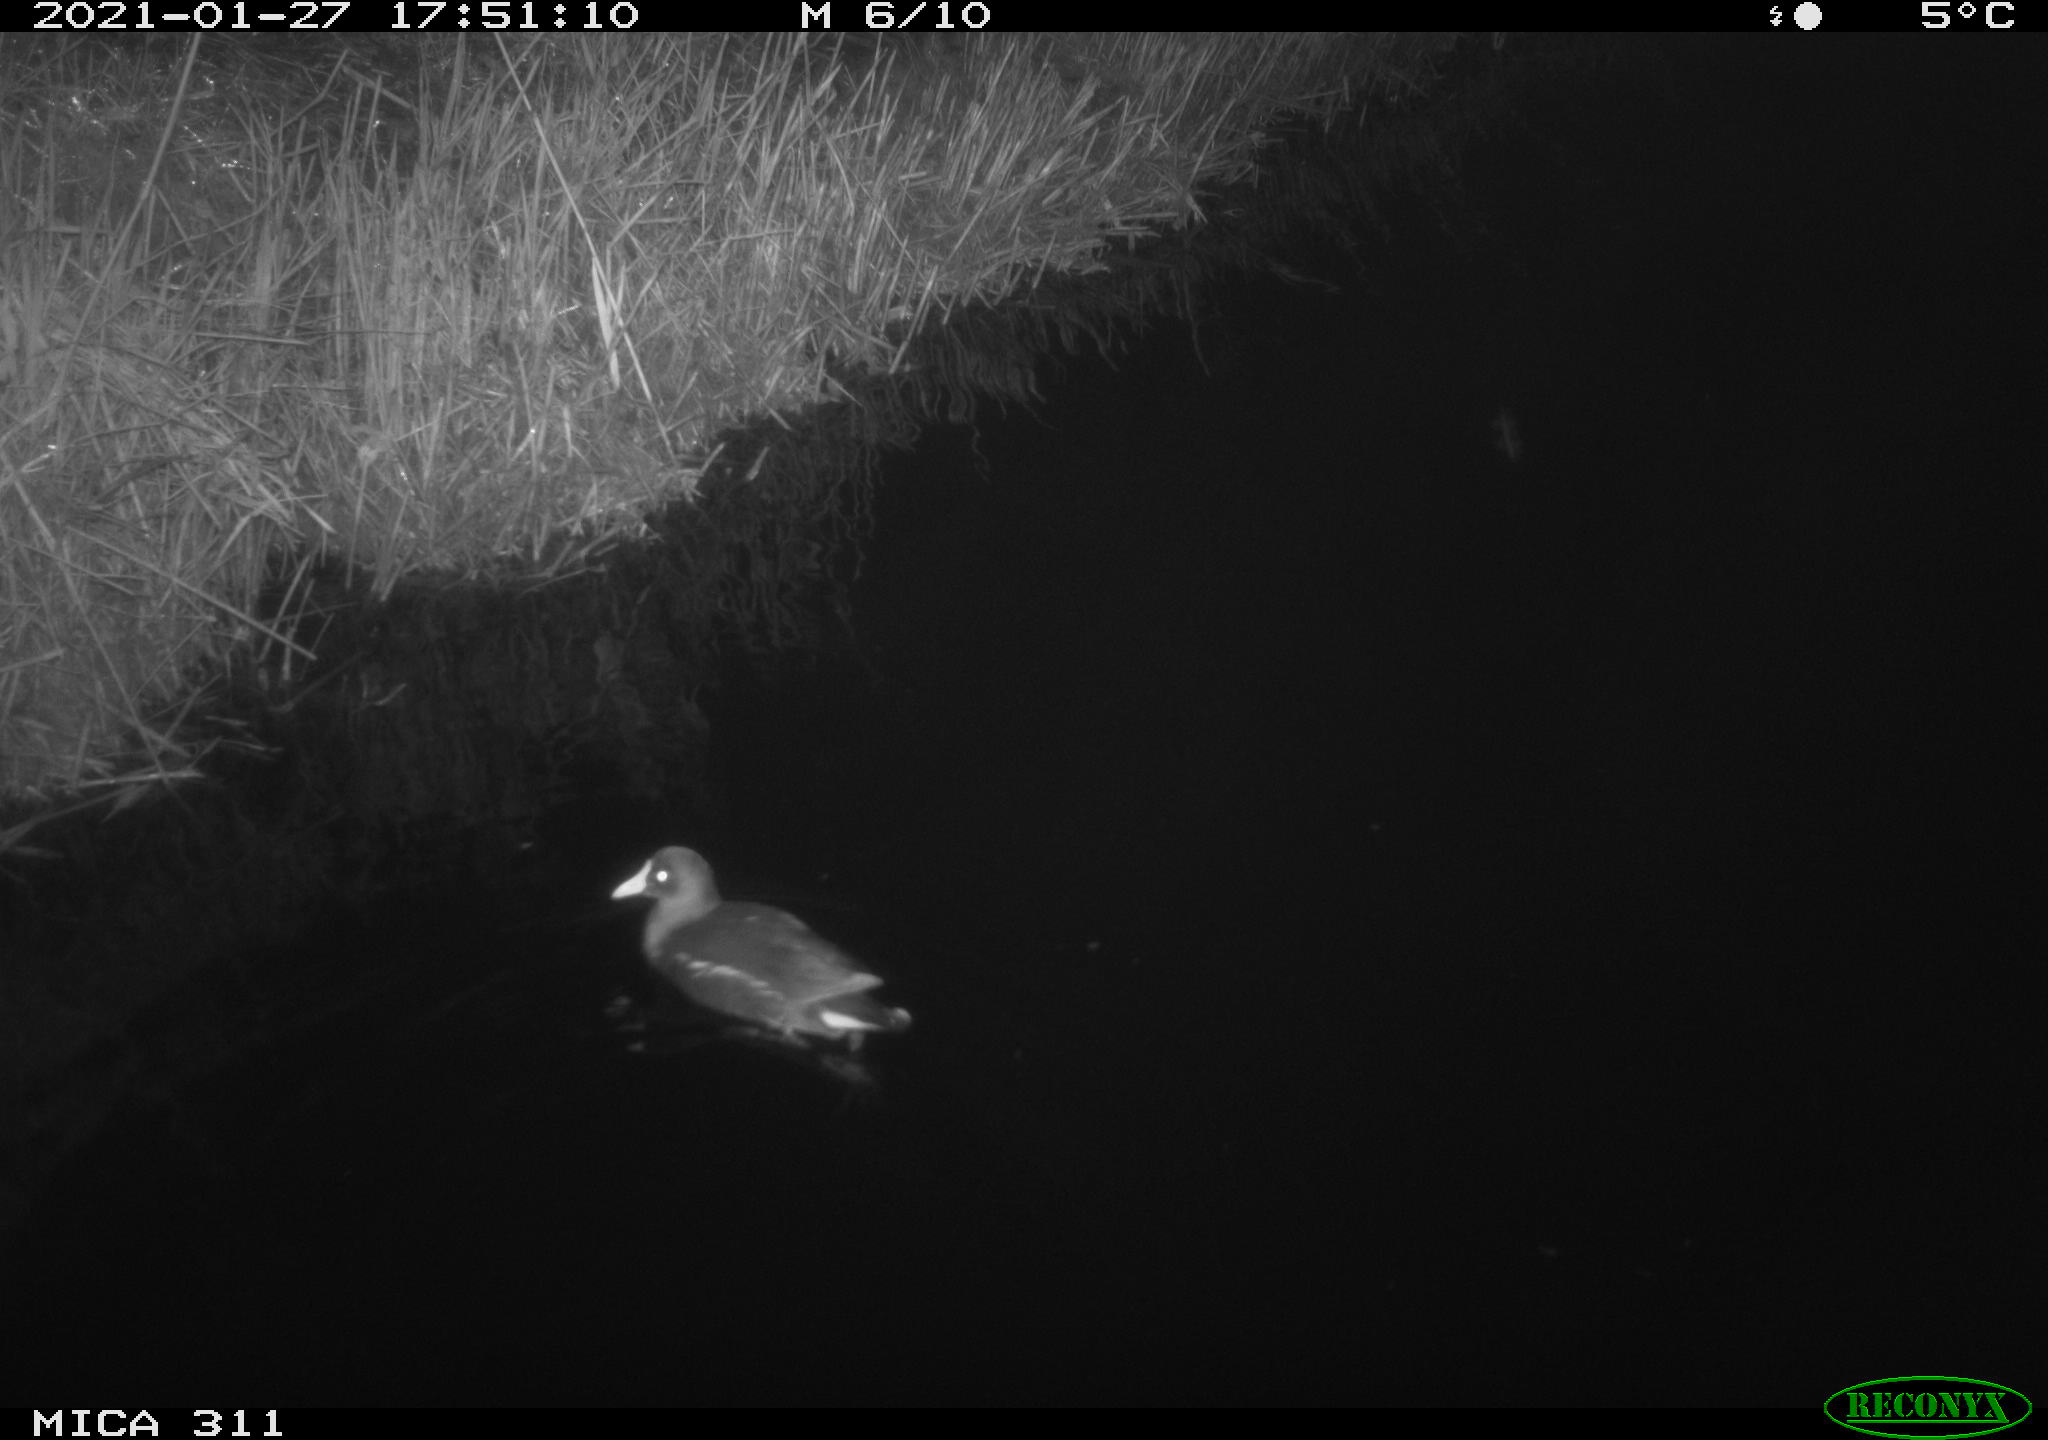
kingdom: Animalia
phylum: Chordata
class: Aves
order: Gruiformes
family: Rallidae
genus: Gallinula
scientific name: Gallinula chloropus
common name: Common moorhen
